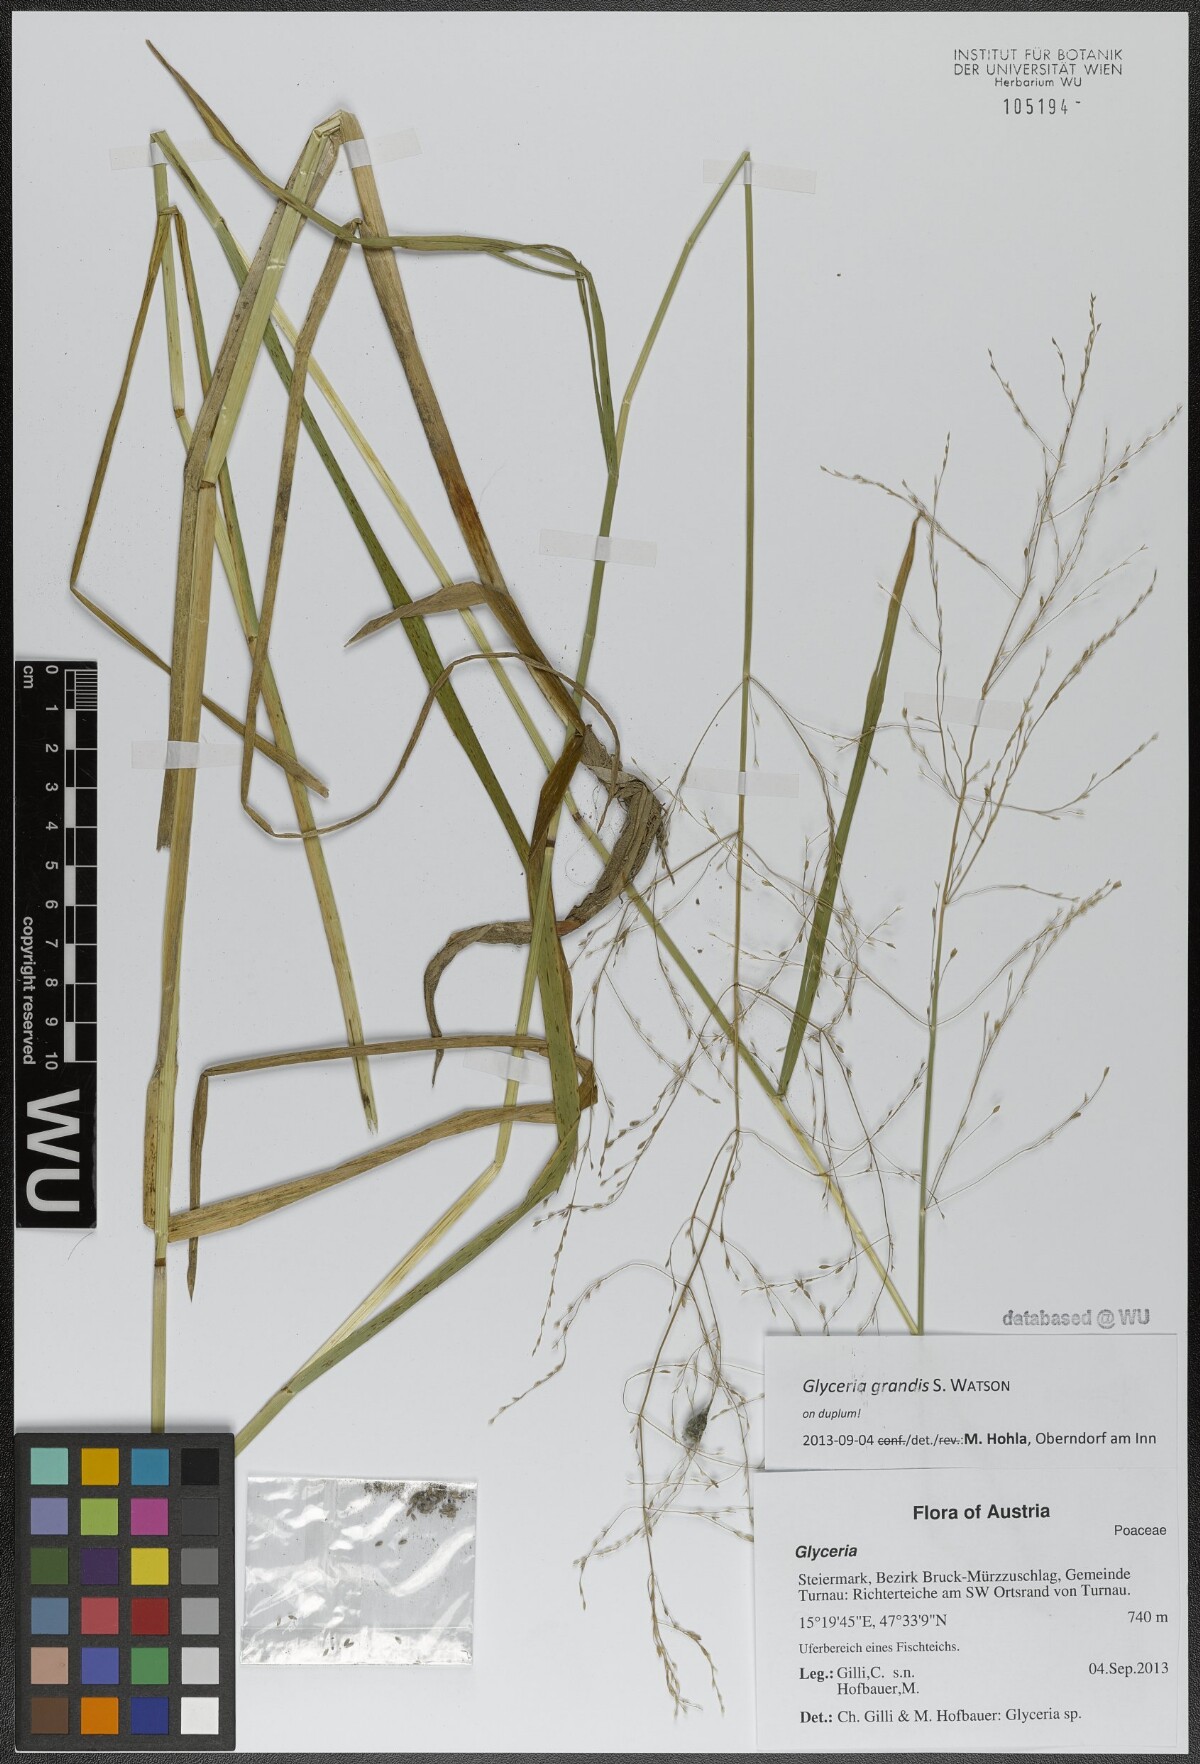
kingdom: Plantae
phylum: Tracheophyta
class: Liliopsida
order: Poales
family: Poaceae
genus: Glyceria
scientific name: Glyceria grandis
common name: American glyceria
